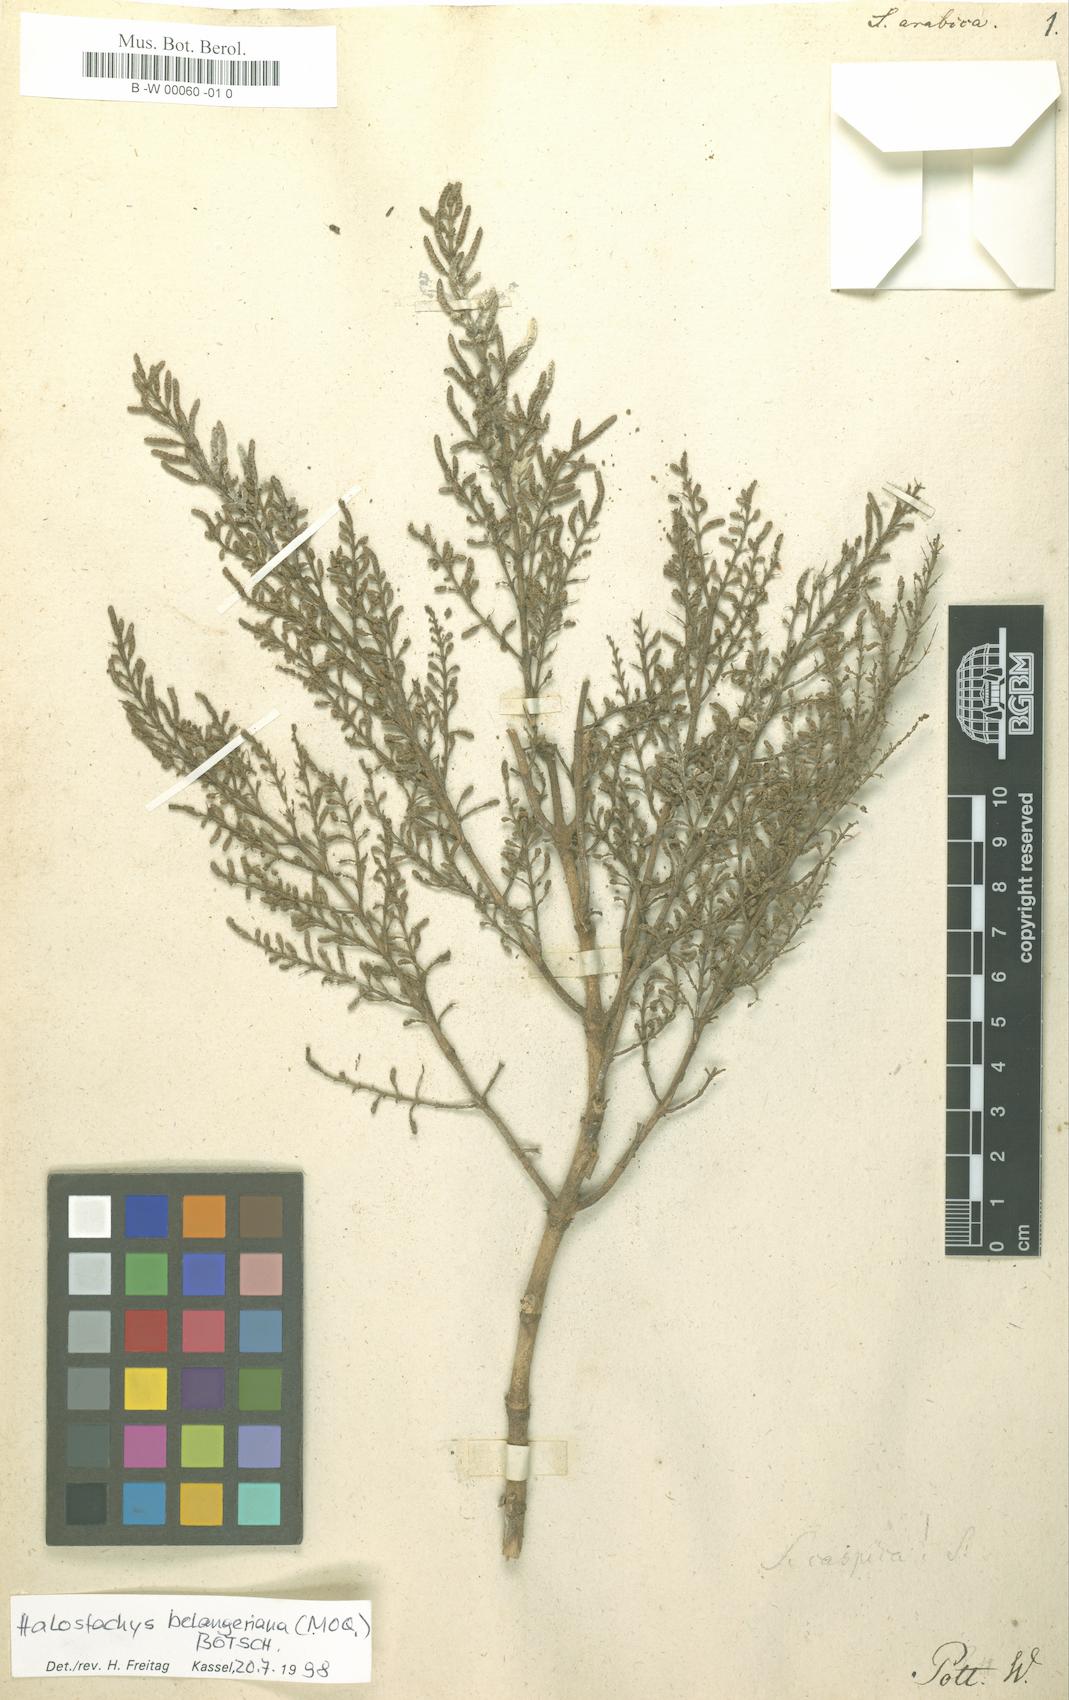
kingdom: Plantae
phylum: Tracheophyta
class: Magnoliopsida
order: Caryophyllales
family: Amaranthaceae
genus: Salicornia
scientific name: Salicornia fruticosa
